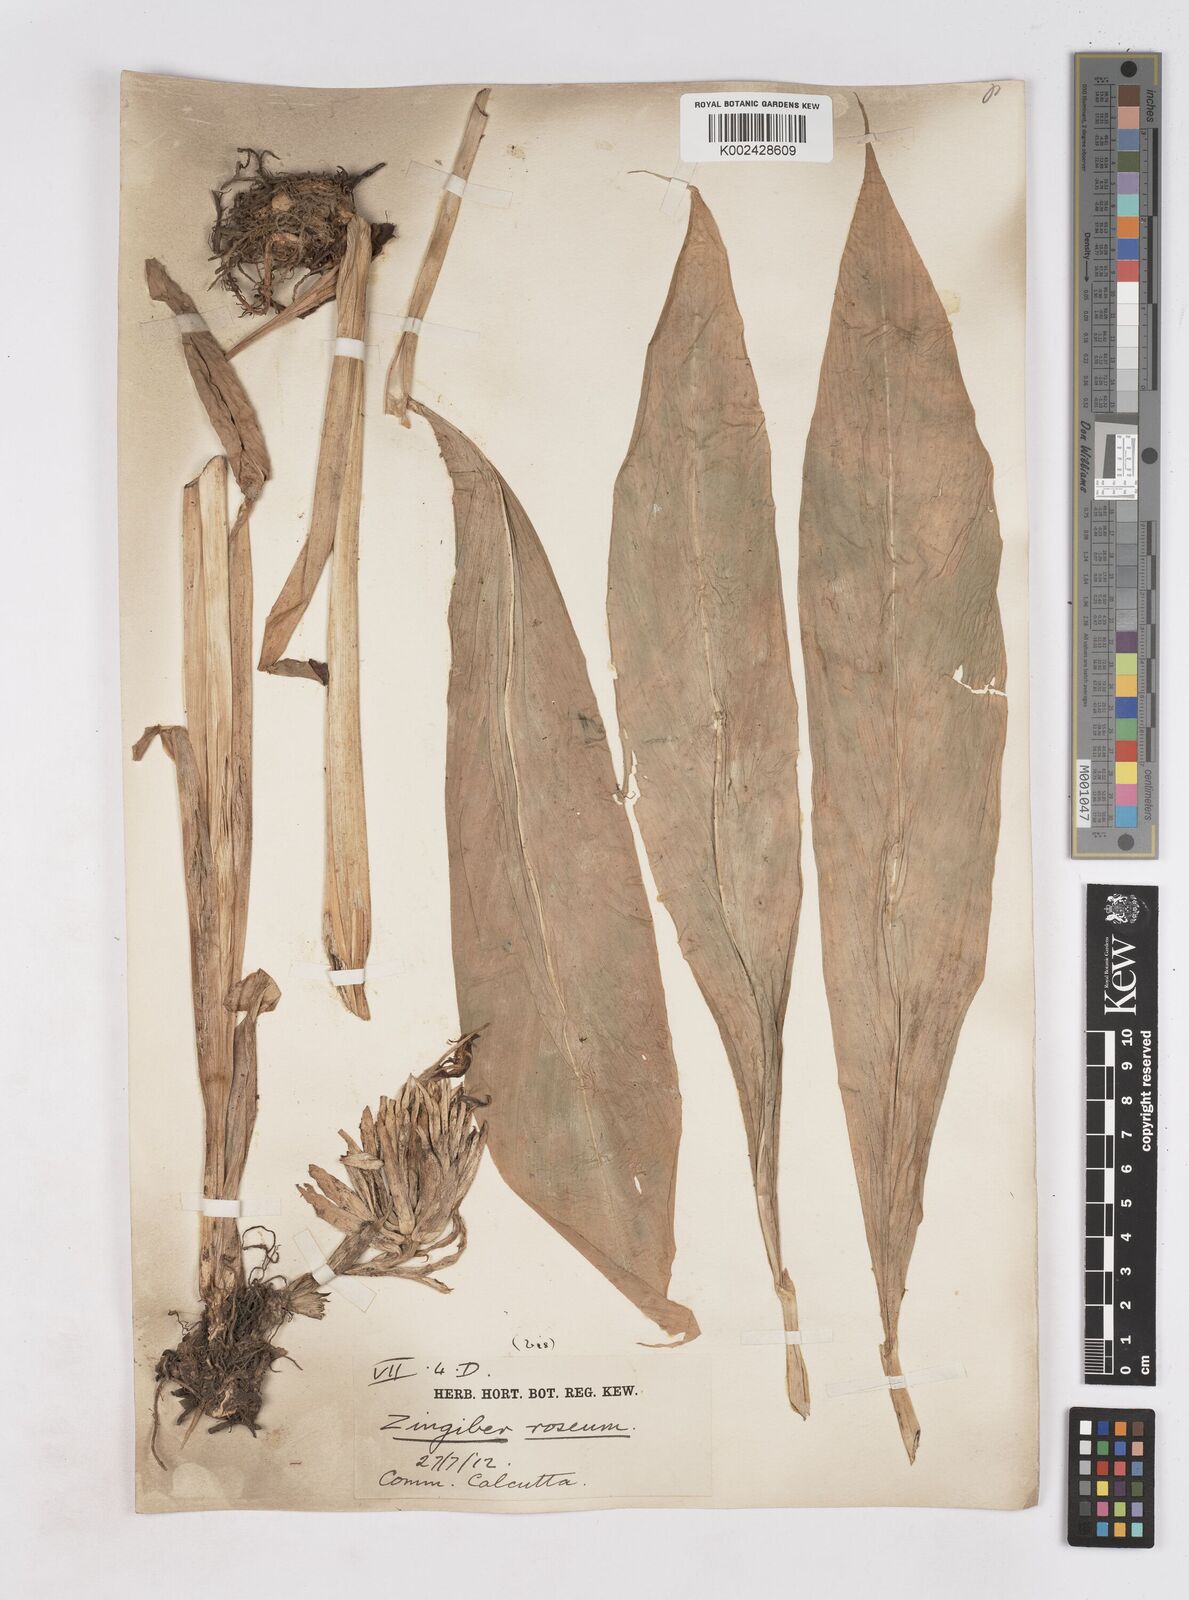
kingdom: Plantae
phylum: Tracheophyta
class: Liliopsida
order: Zingiberales
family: Zingiberaceae
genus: Zingiber
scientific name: Zingiber roseum
